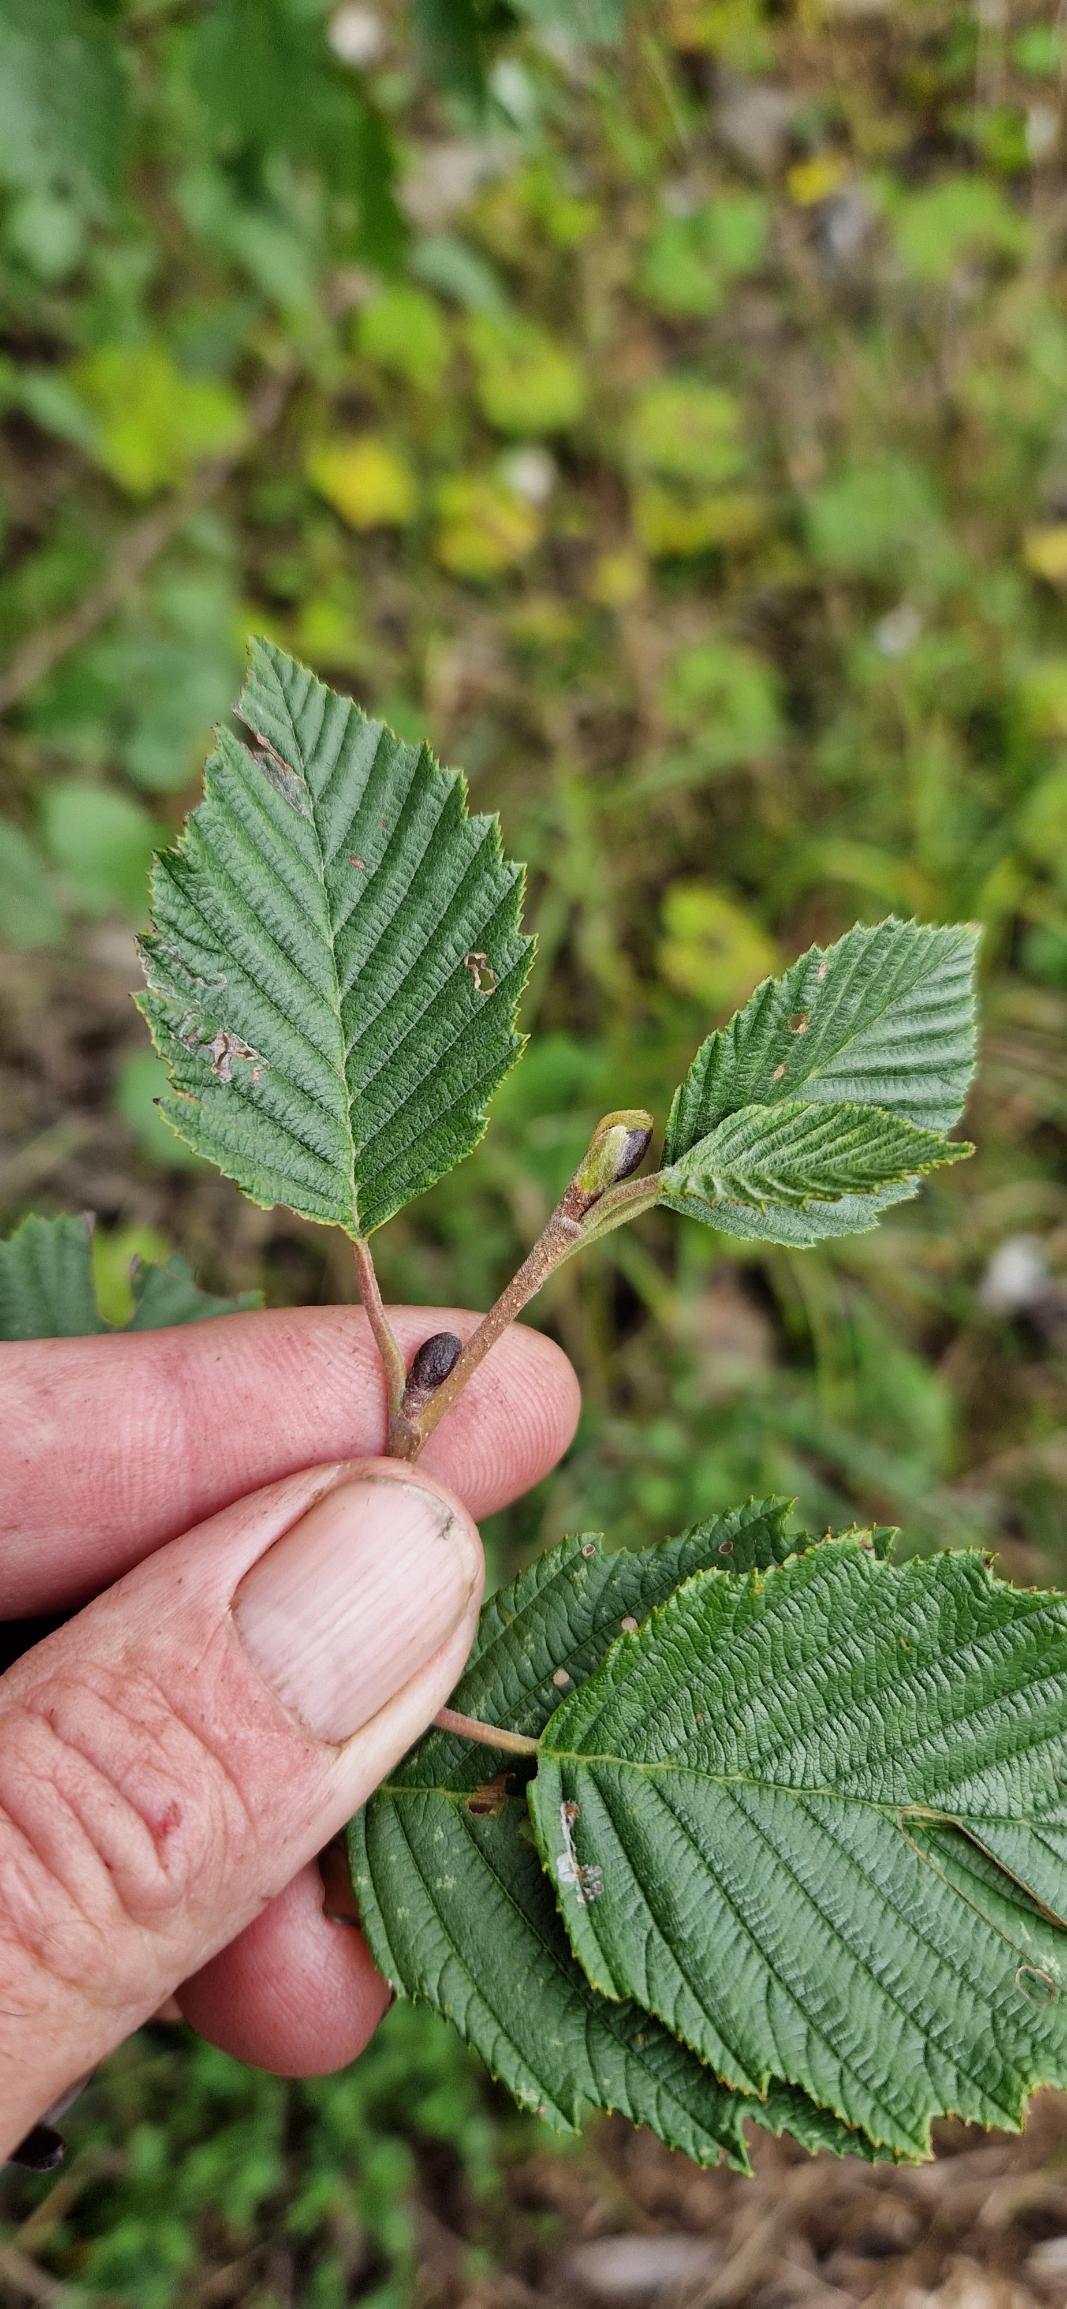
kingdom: Plantae
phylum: Tracheophyta
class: Magnoliopsida
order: Fagales
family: Betulaceae
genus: Alnus
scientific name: Alnus incana
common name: Grå-el/hvid-el
